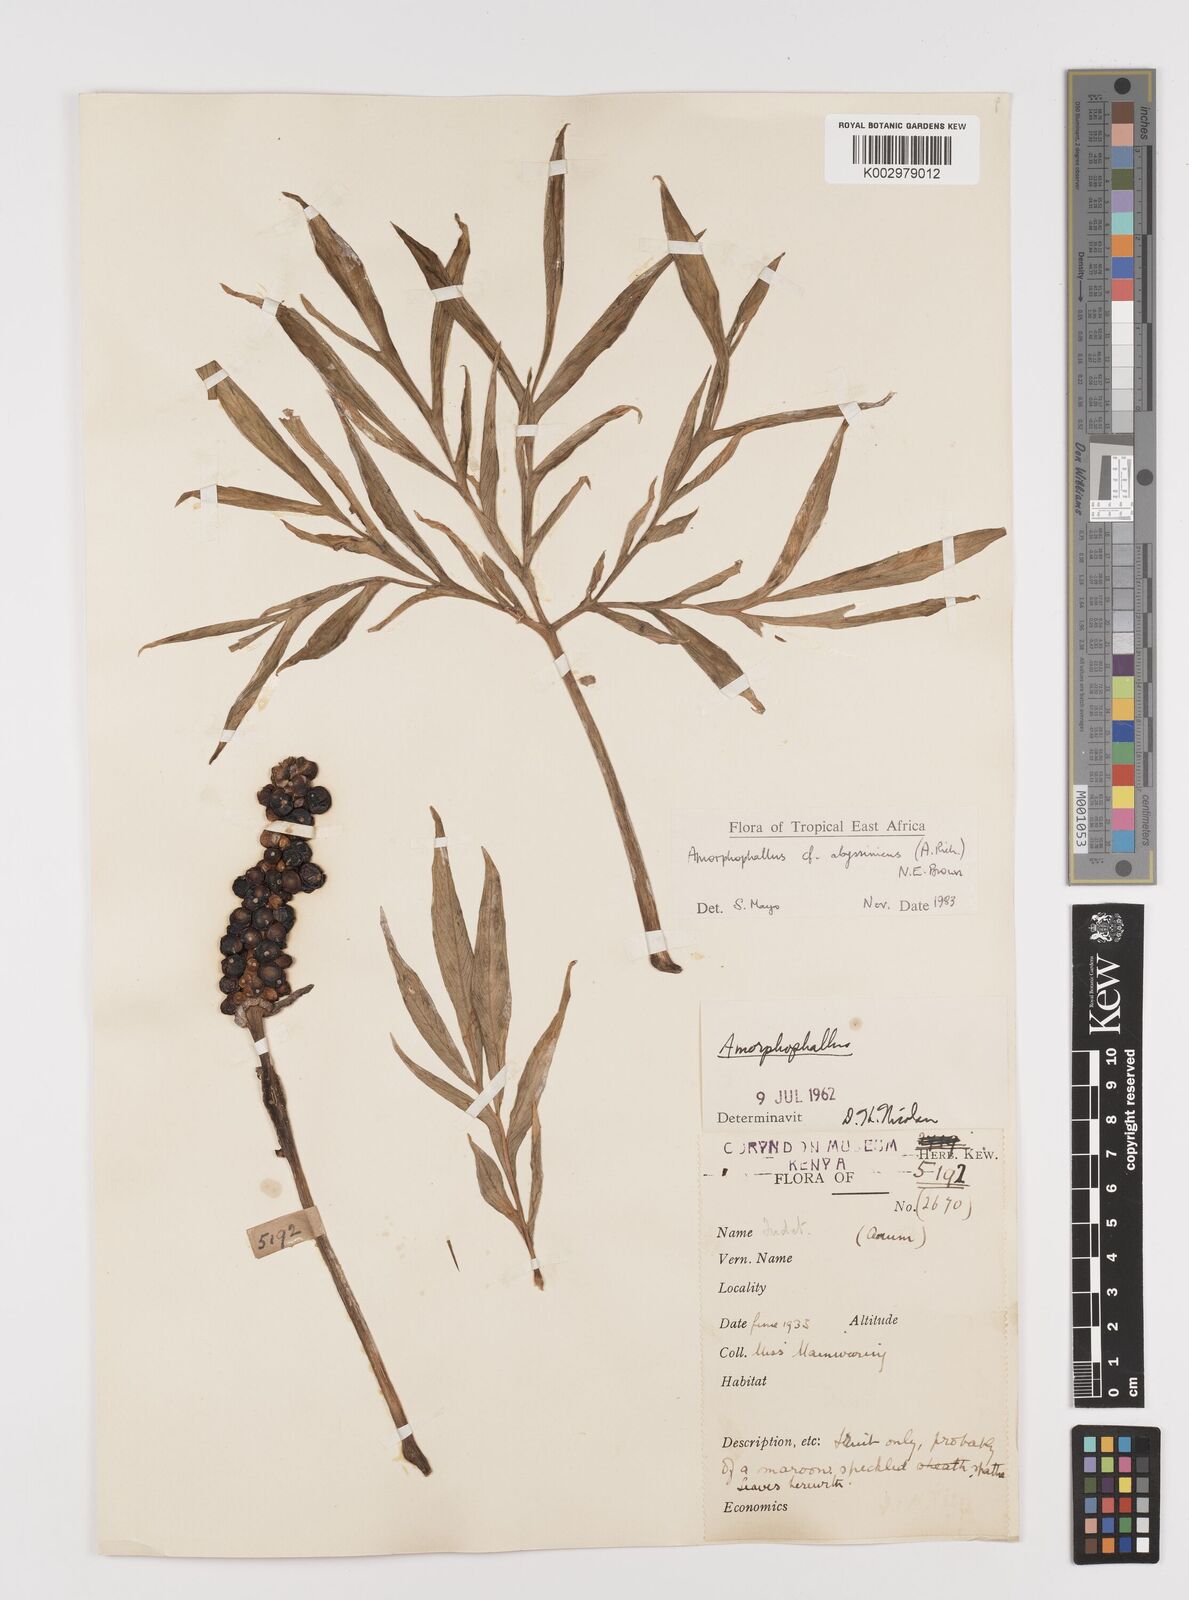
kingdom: Plantae
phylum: Tracheophyta
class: Liliopsida
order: Alismatales
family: Araceae
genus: Amorphophallus
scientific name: Amorphophallus abyssinicus
